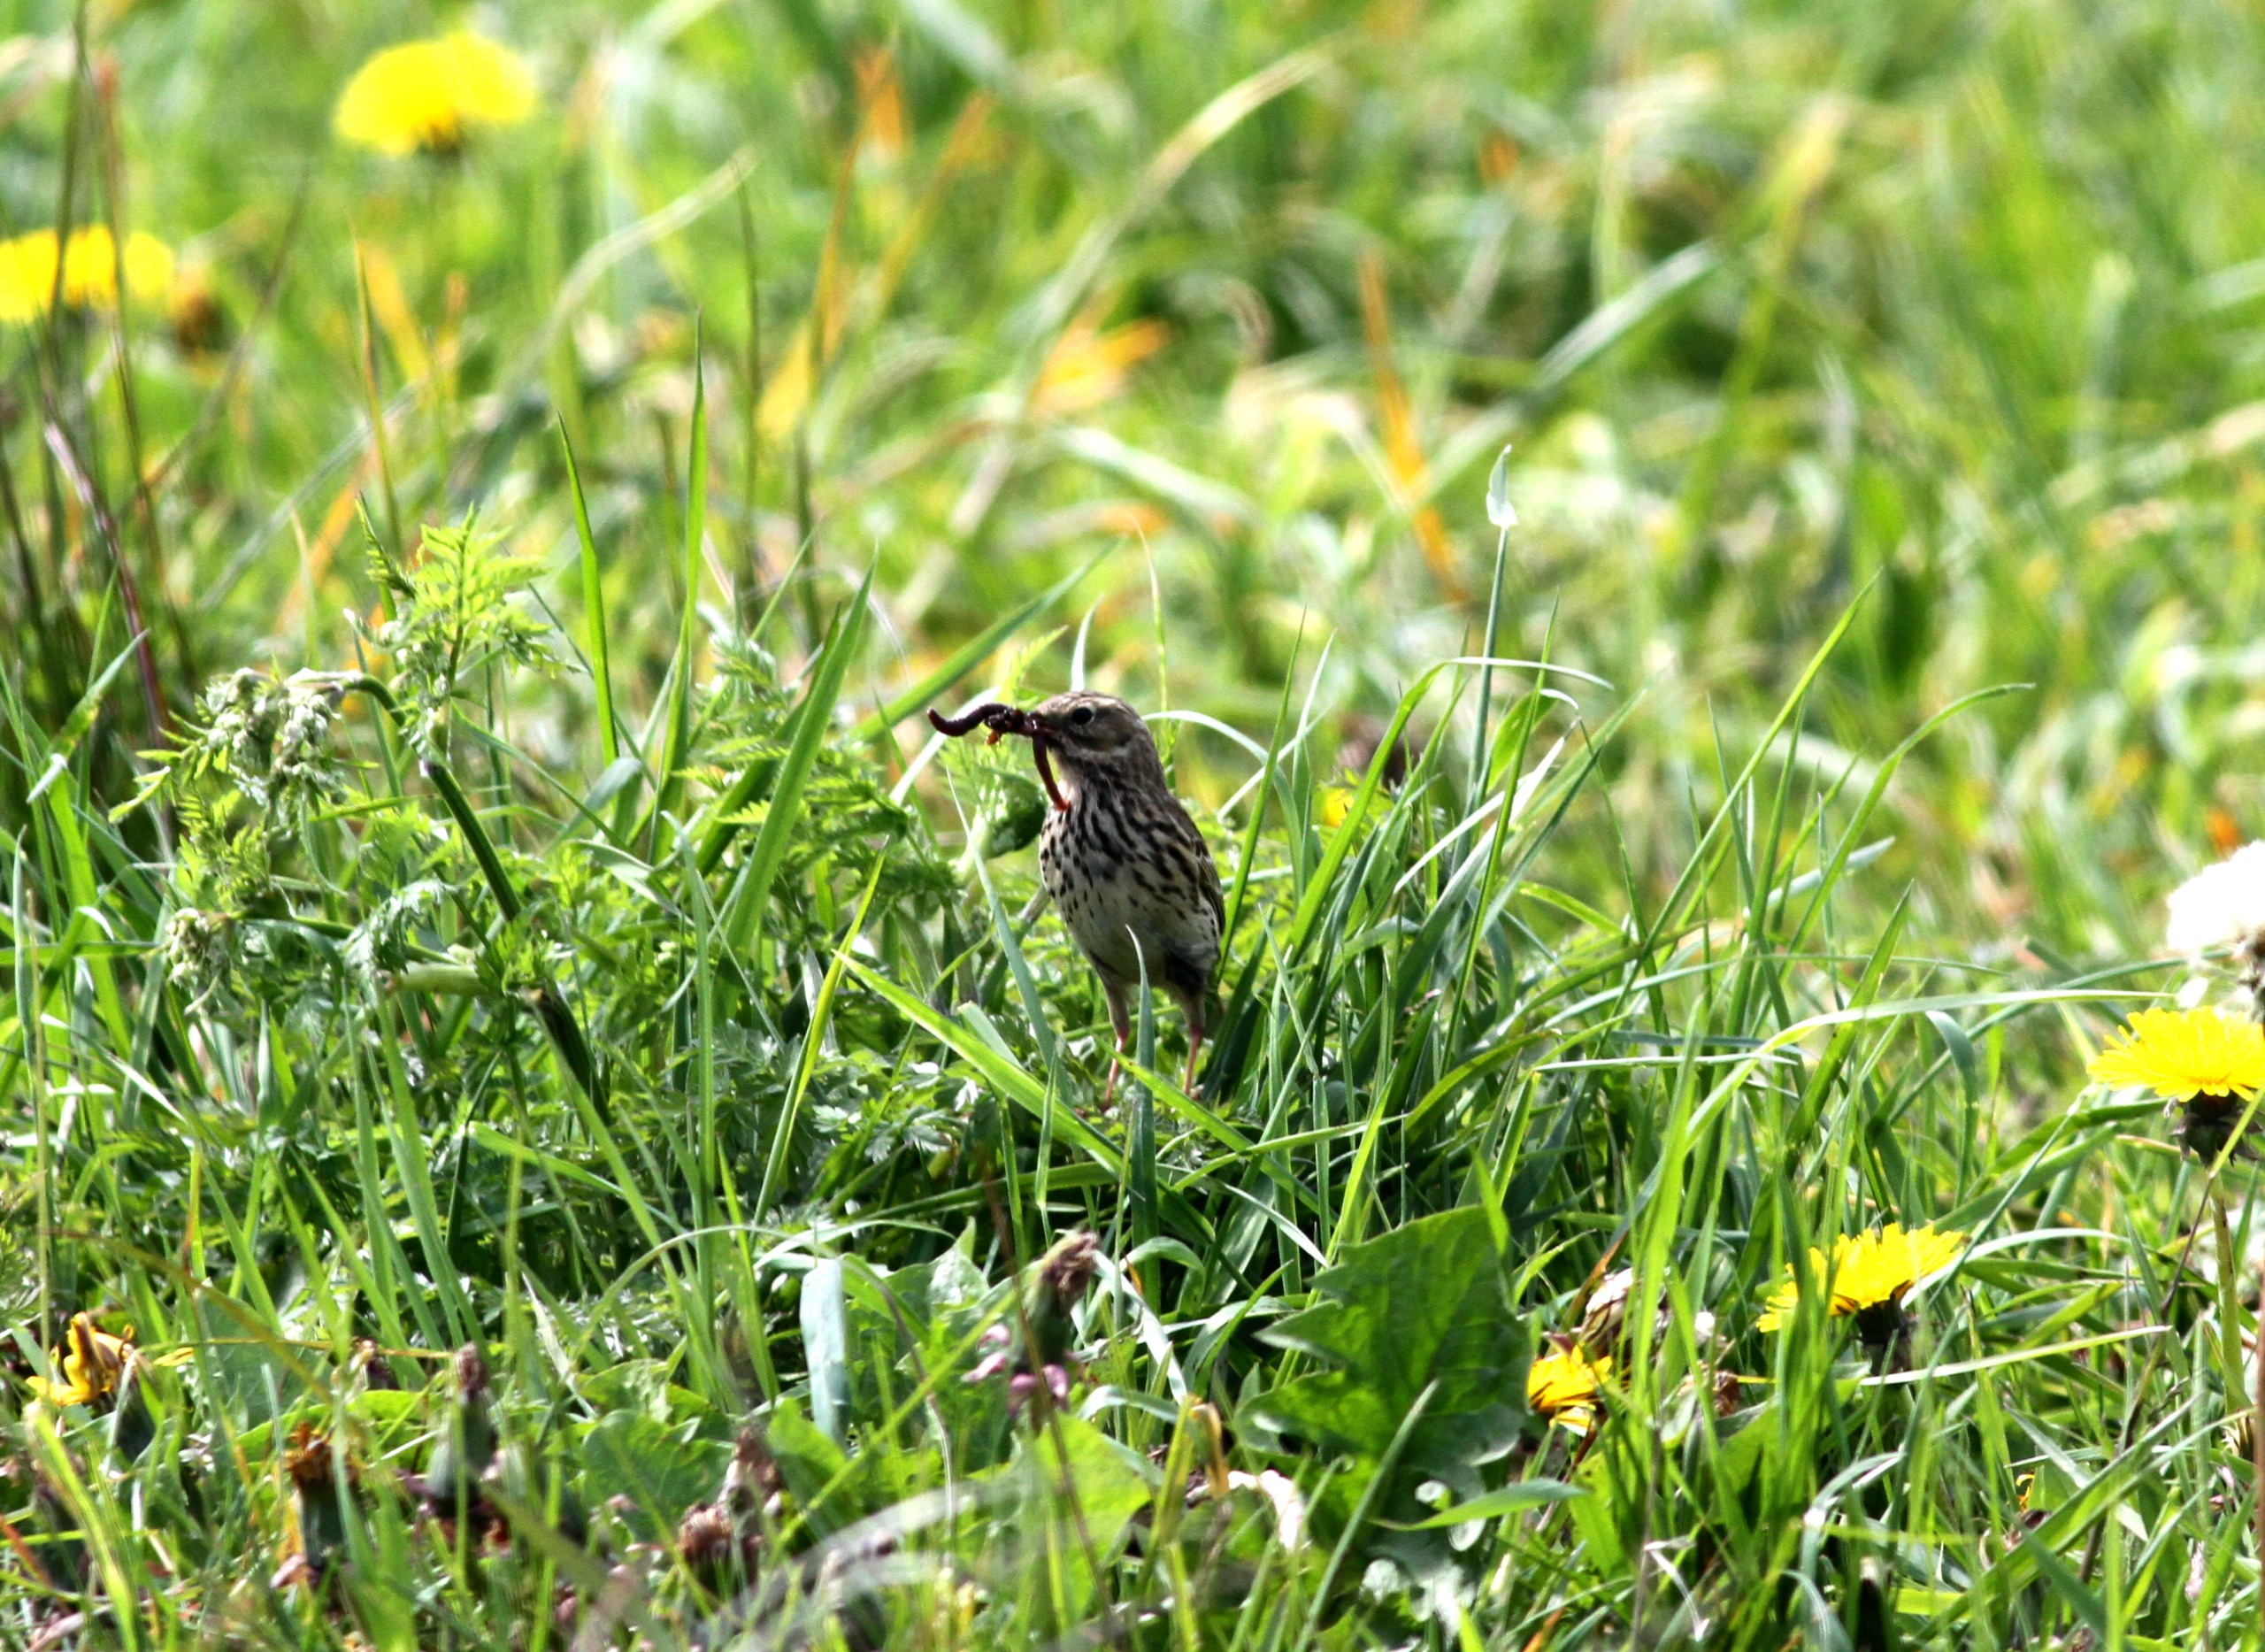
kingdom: Animalia
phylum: Chordata
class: Aves
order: Passeriformes
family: Motacillidae
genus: Anthus
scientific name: Anthus pratensis
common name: Engpiber
